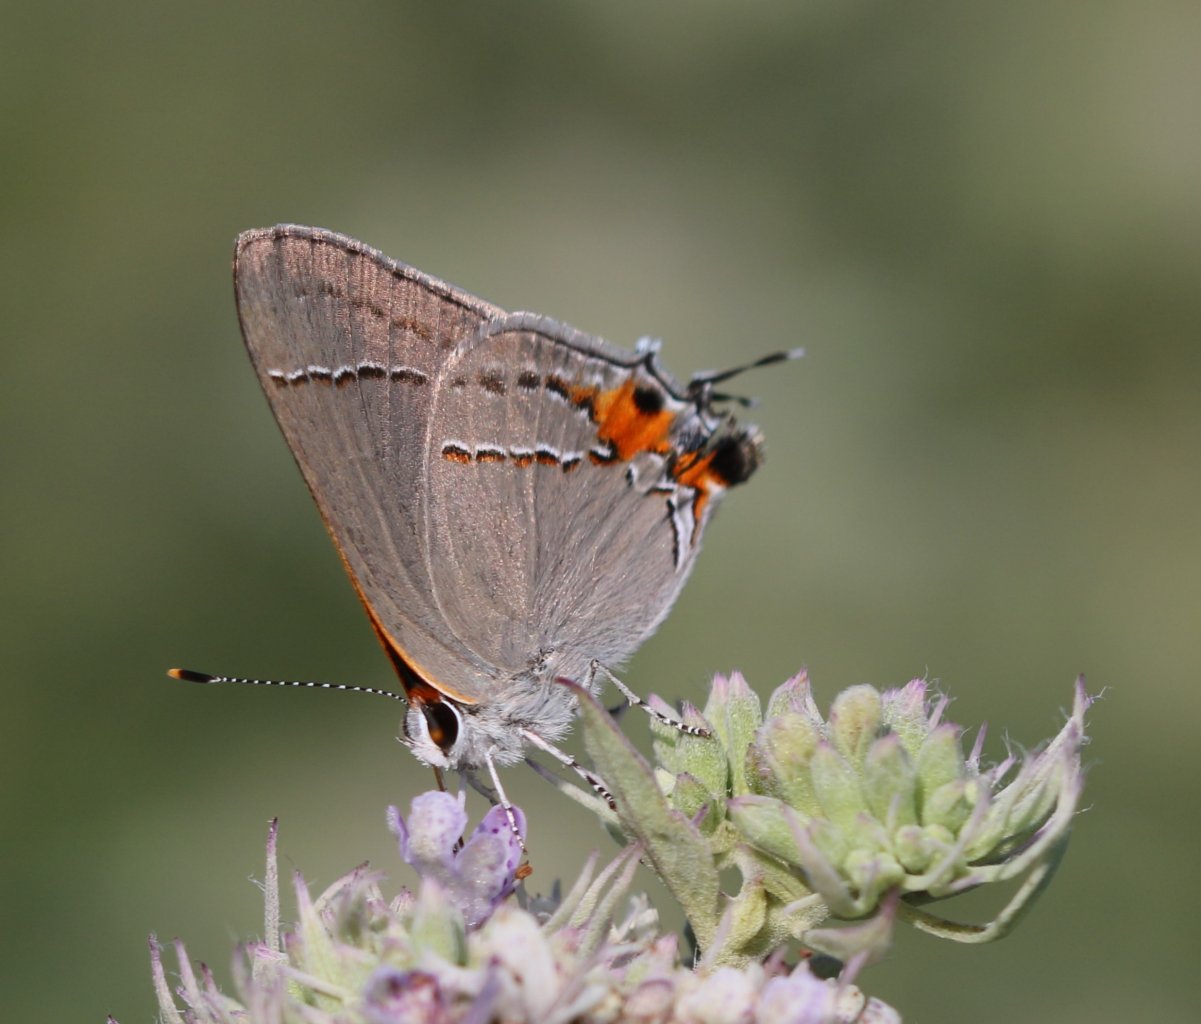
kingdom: Animalia
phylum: Arthropoda
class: Insecta
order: Lepidoptera
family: Lycaenidae
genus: Strymon
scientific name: Strymon melinus
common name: Gray Hairstreak
